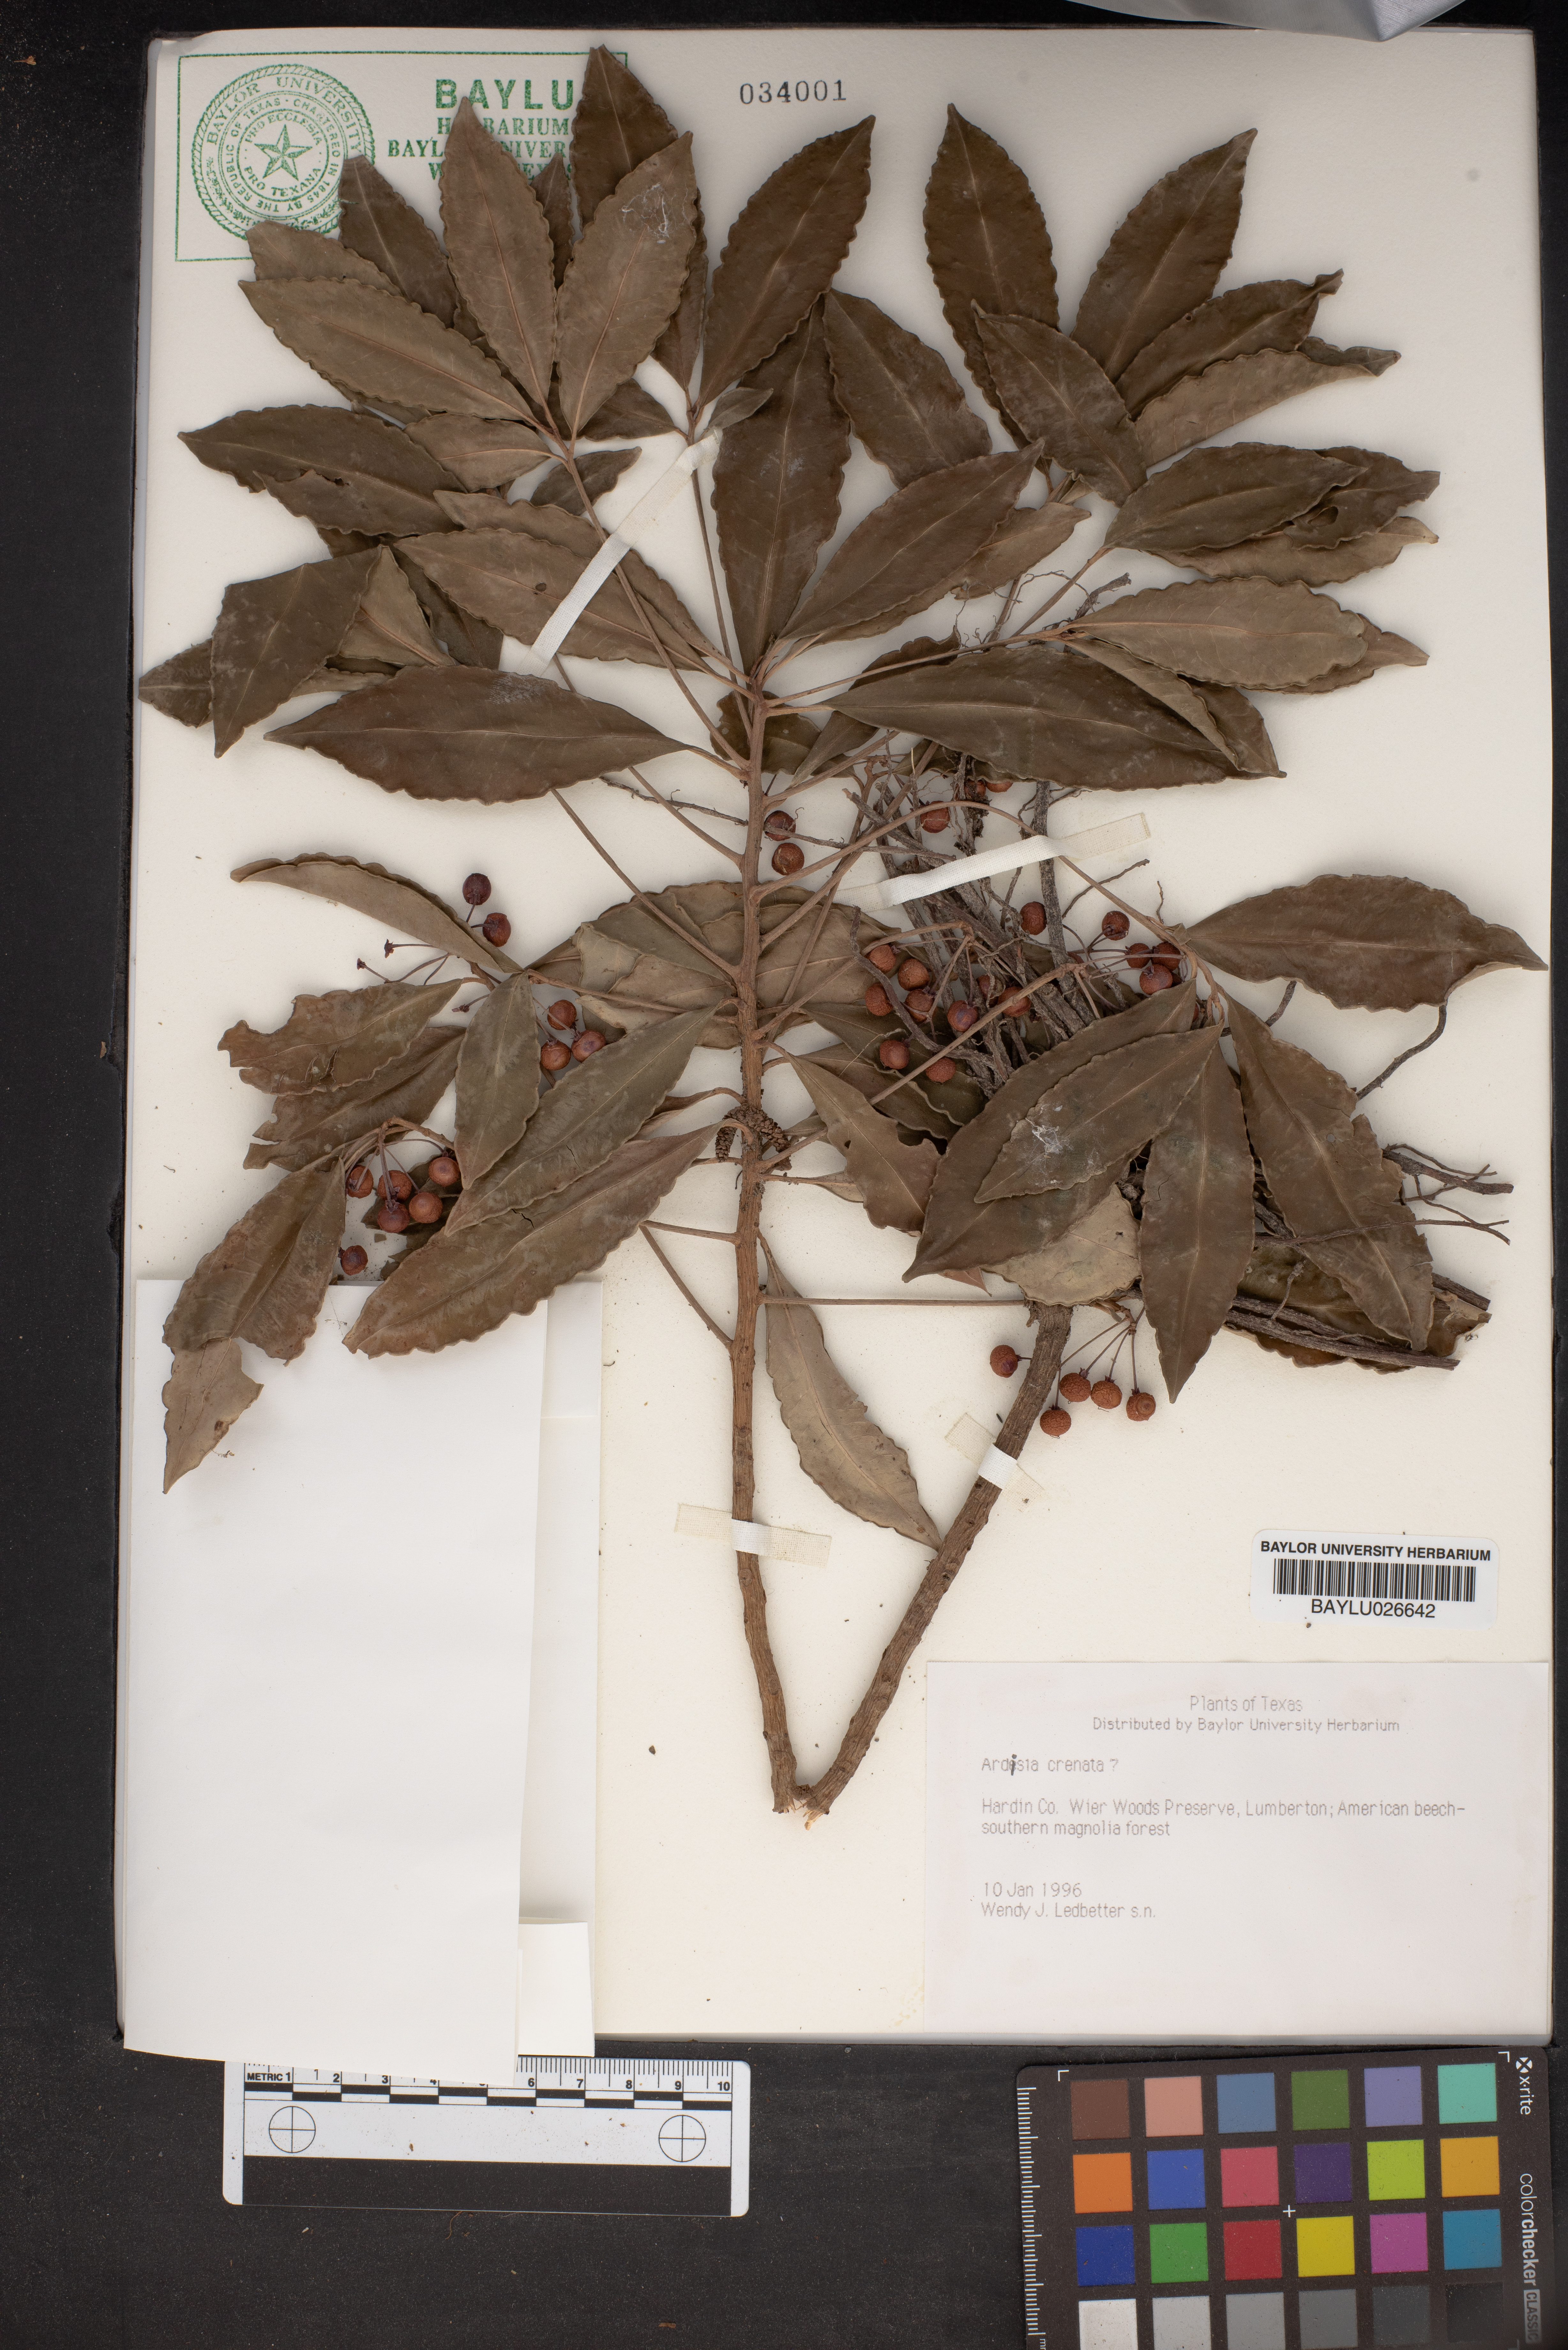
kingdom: Plantae
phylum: Tracheophyta
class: Magnoliopsida
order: Ericales
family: Primulaceae
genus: Ardisia
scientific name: Ardisia crenata
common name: Hen's eyes
